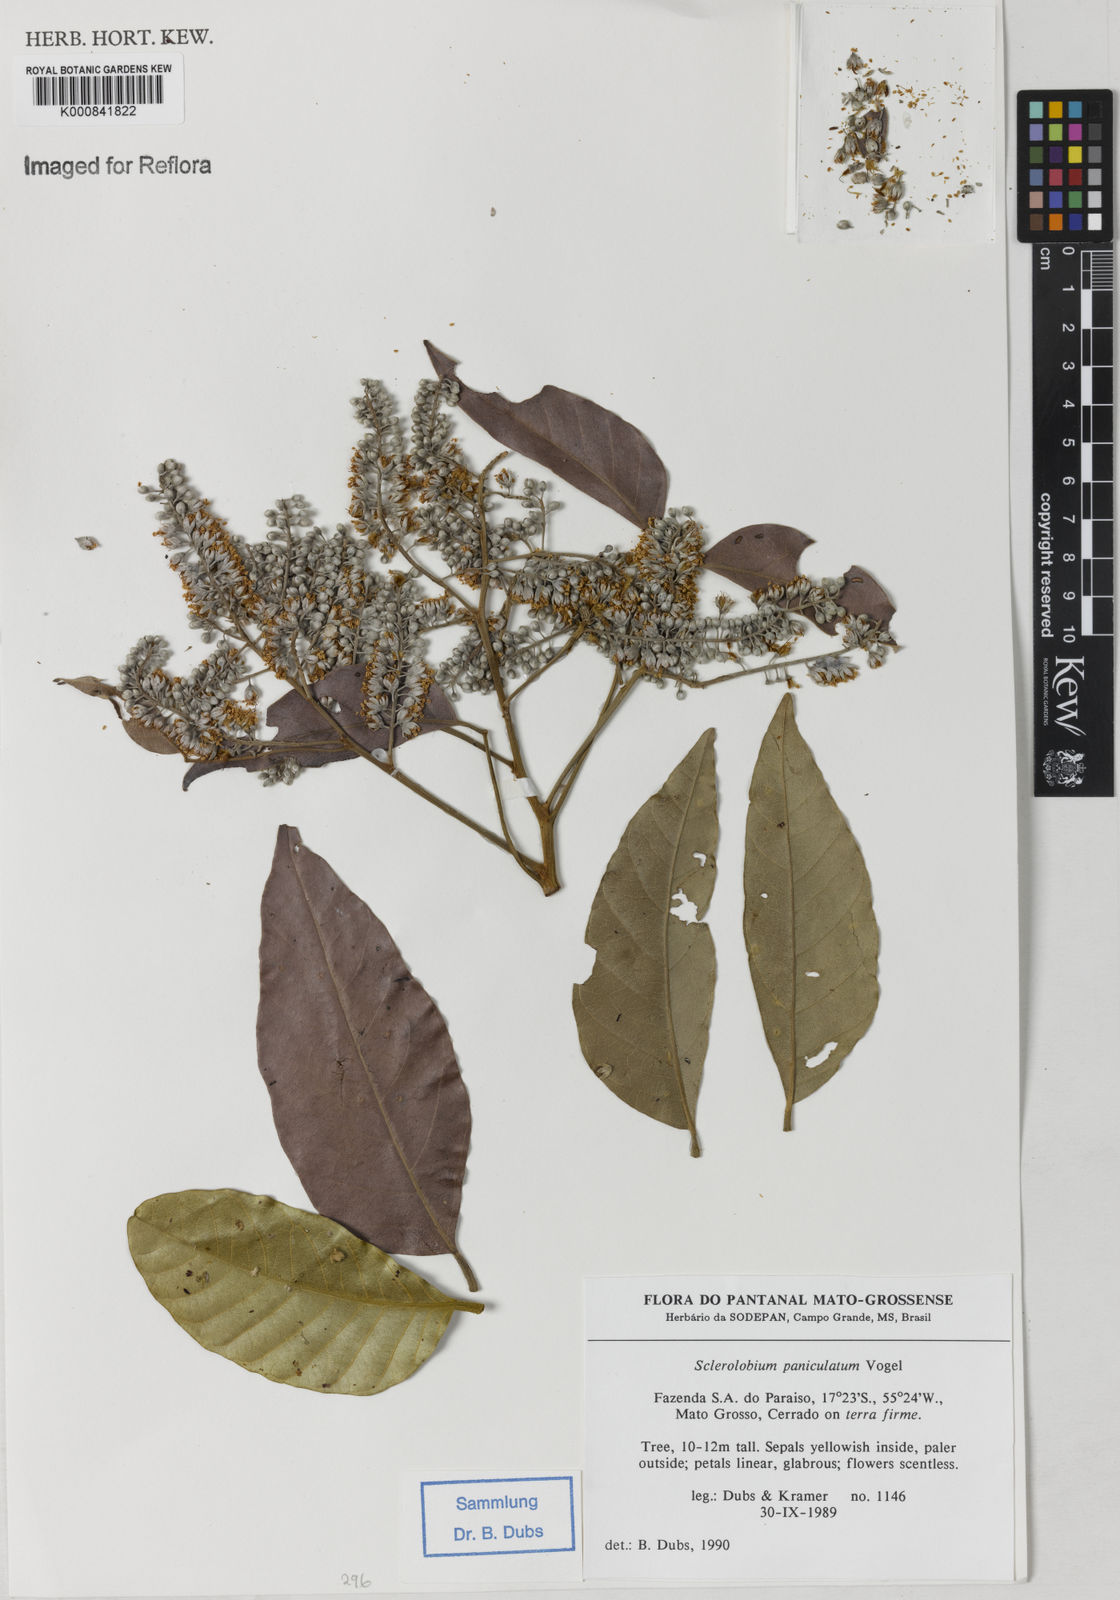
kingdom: Plantae
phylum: Tracheophyta
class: Magnoliopsida
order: Fabales
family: Fabaceae
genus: Tachigali
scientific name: Tachigali subvelutina
